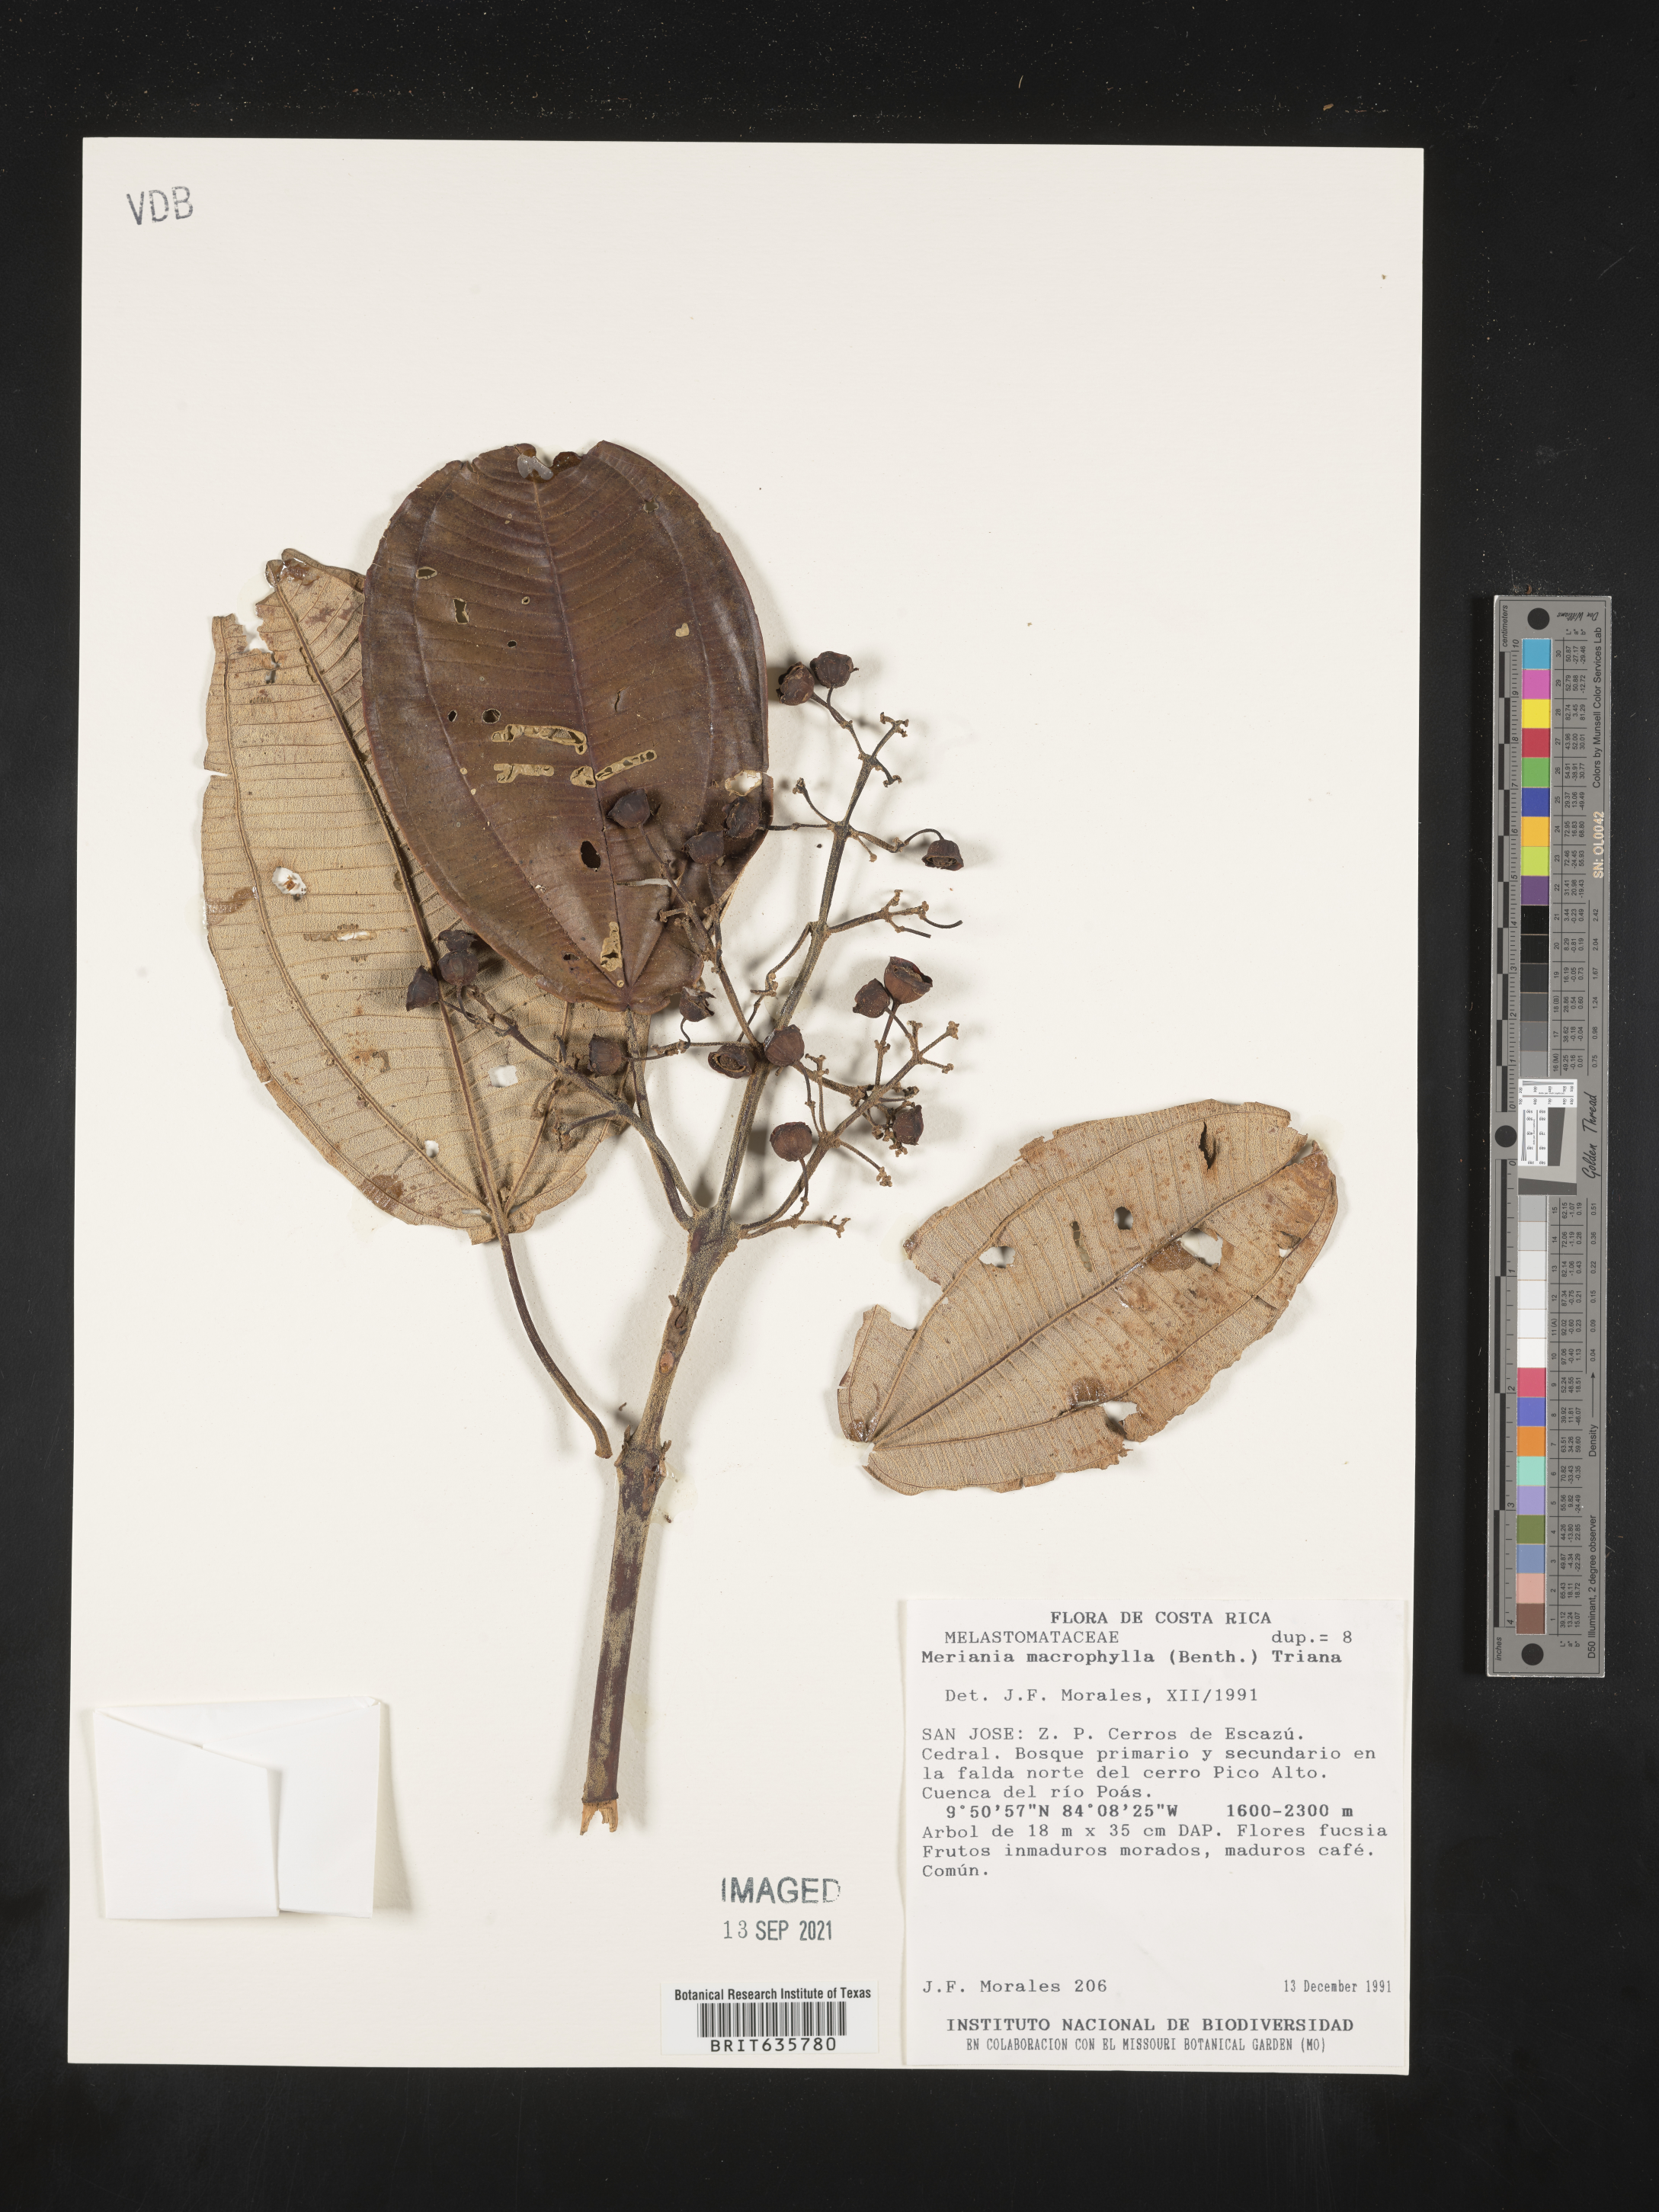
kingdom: Plantae
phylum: Tracheophyta
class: Magnoliopsida
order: Myrtales
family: Melastomataceae
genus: Meriania
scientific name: Meriania
